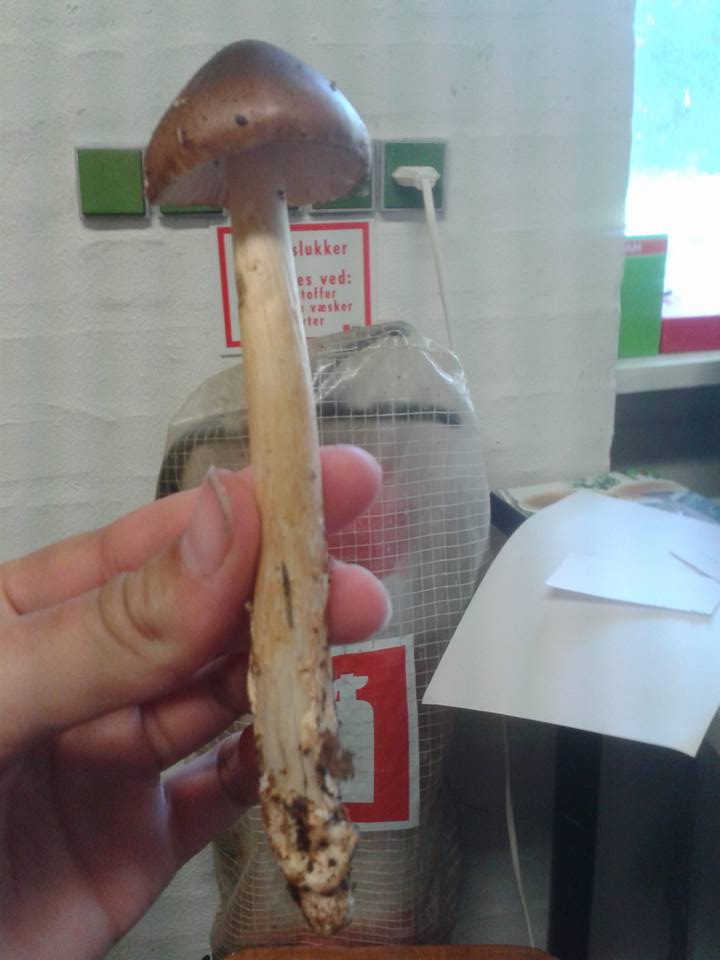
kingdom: Fungi
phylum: Basidiomycota
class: Agaricomycetes
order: Agaricales
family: Amanitaceae
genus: Amanita
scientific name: Amanita fulva
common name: brun kam-fluesvamp
